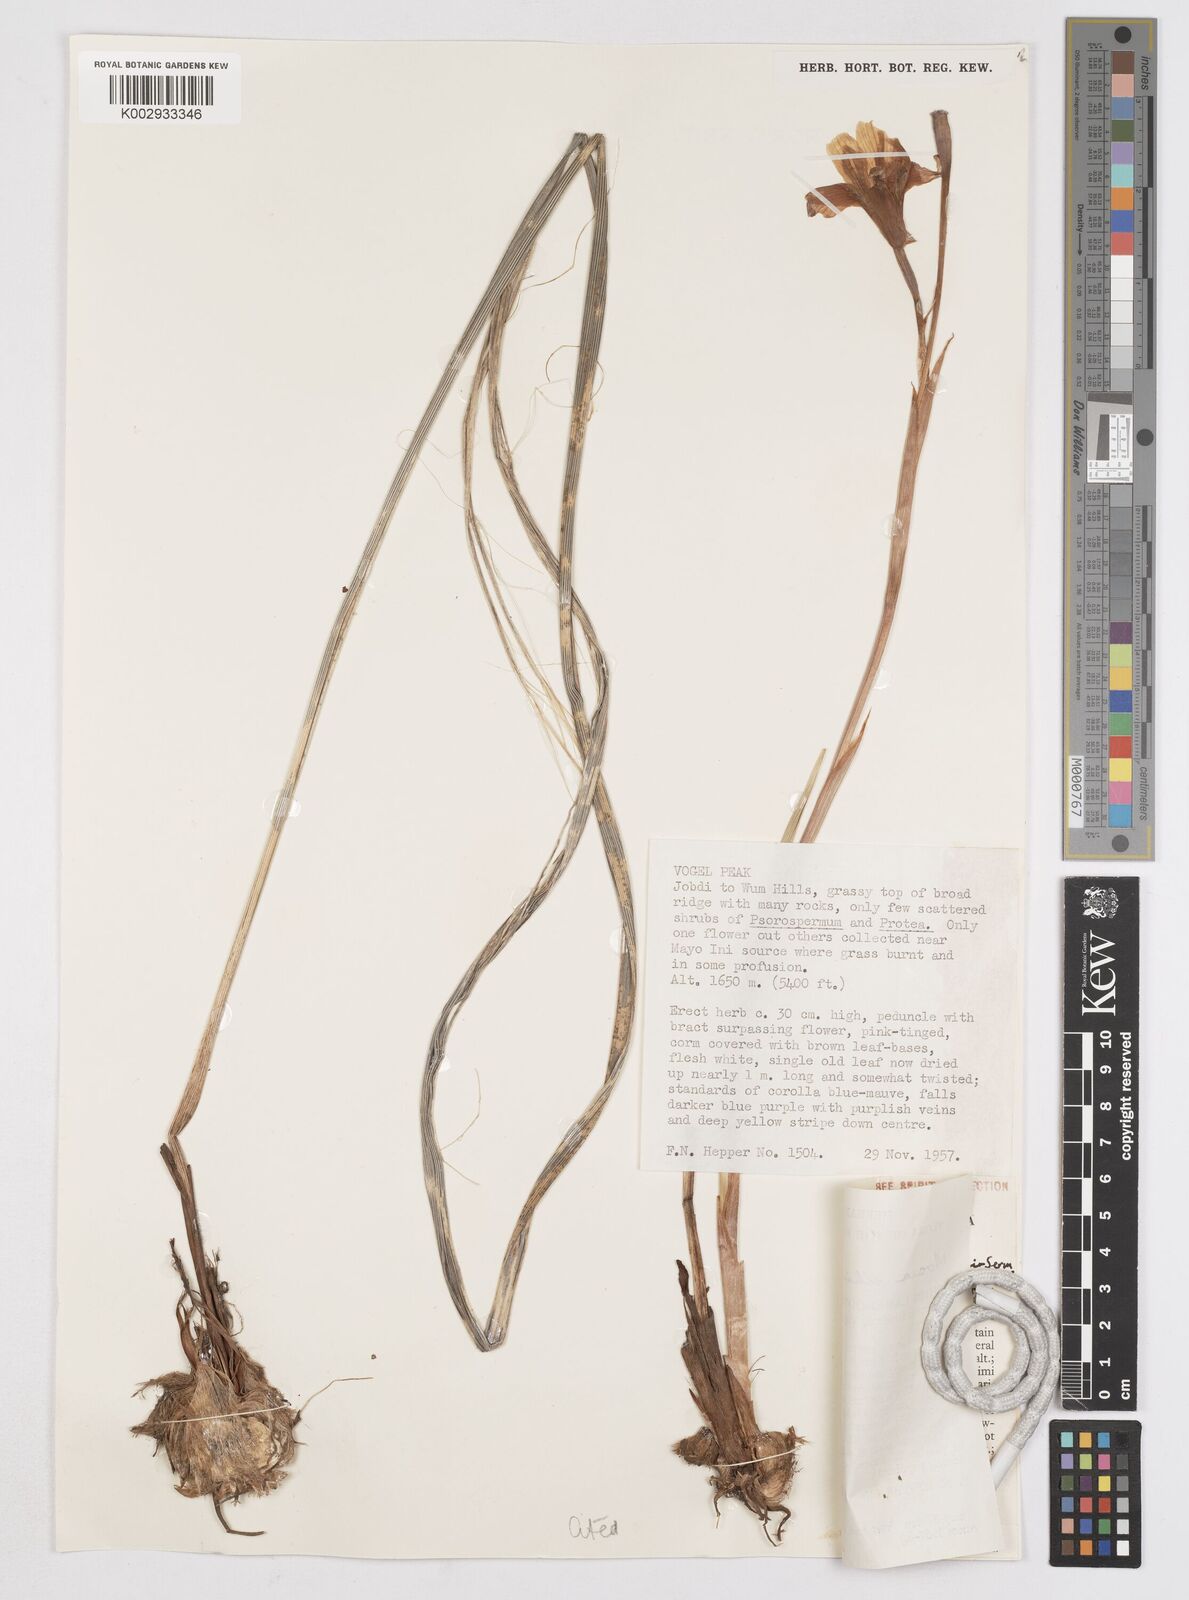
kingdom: Plantae
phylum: Tracheophyta
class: Liliopsida
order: Asparagales
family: Iridaceae
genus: Moraea
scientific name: Moraea schimperi
